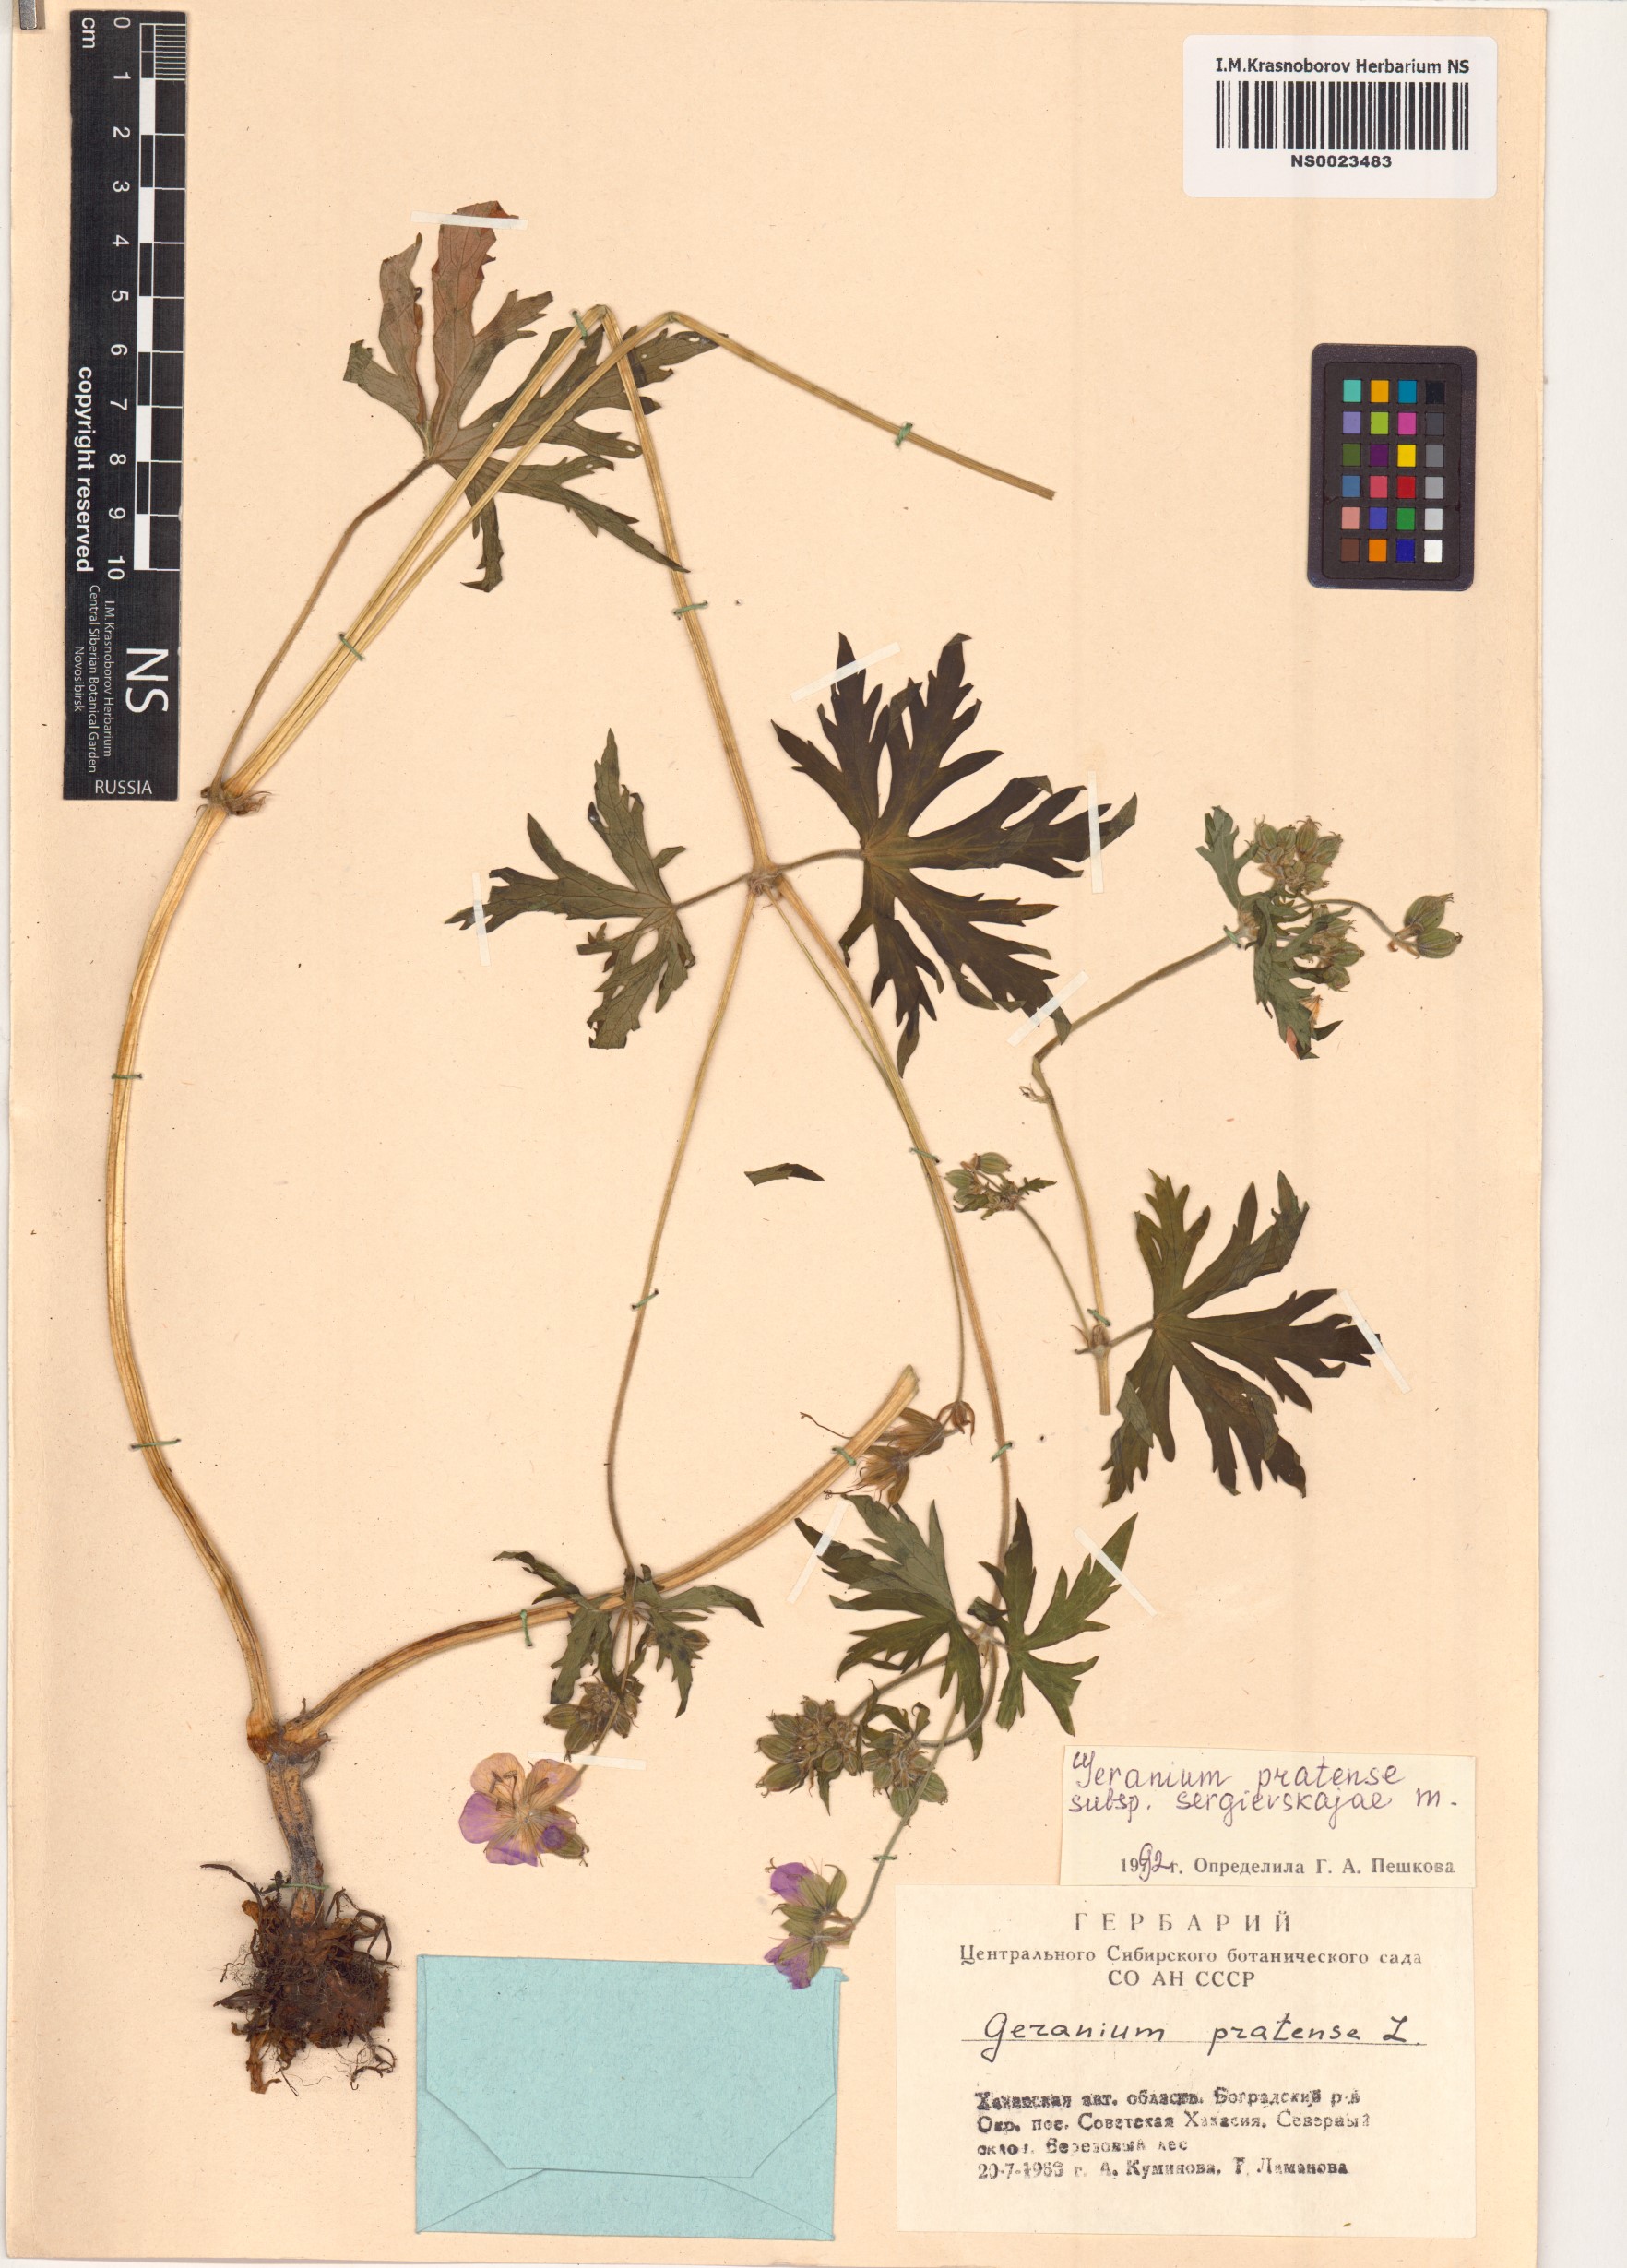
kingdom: Plantae
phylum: Tracheophyta
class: Magnoliopsida
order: Geraniales
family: Geraniaceae
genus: Geranium
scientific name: Geranium pratense
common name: Meadow crane's-bill
